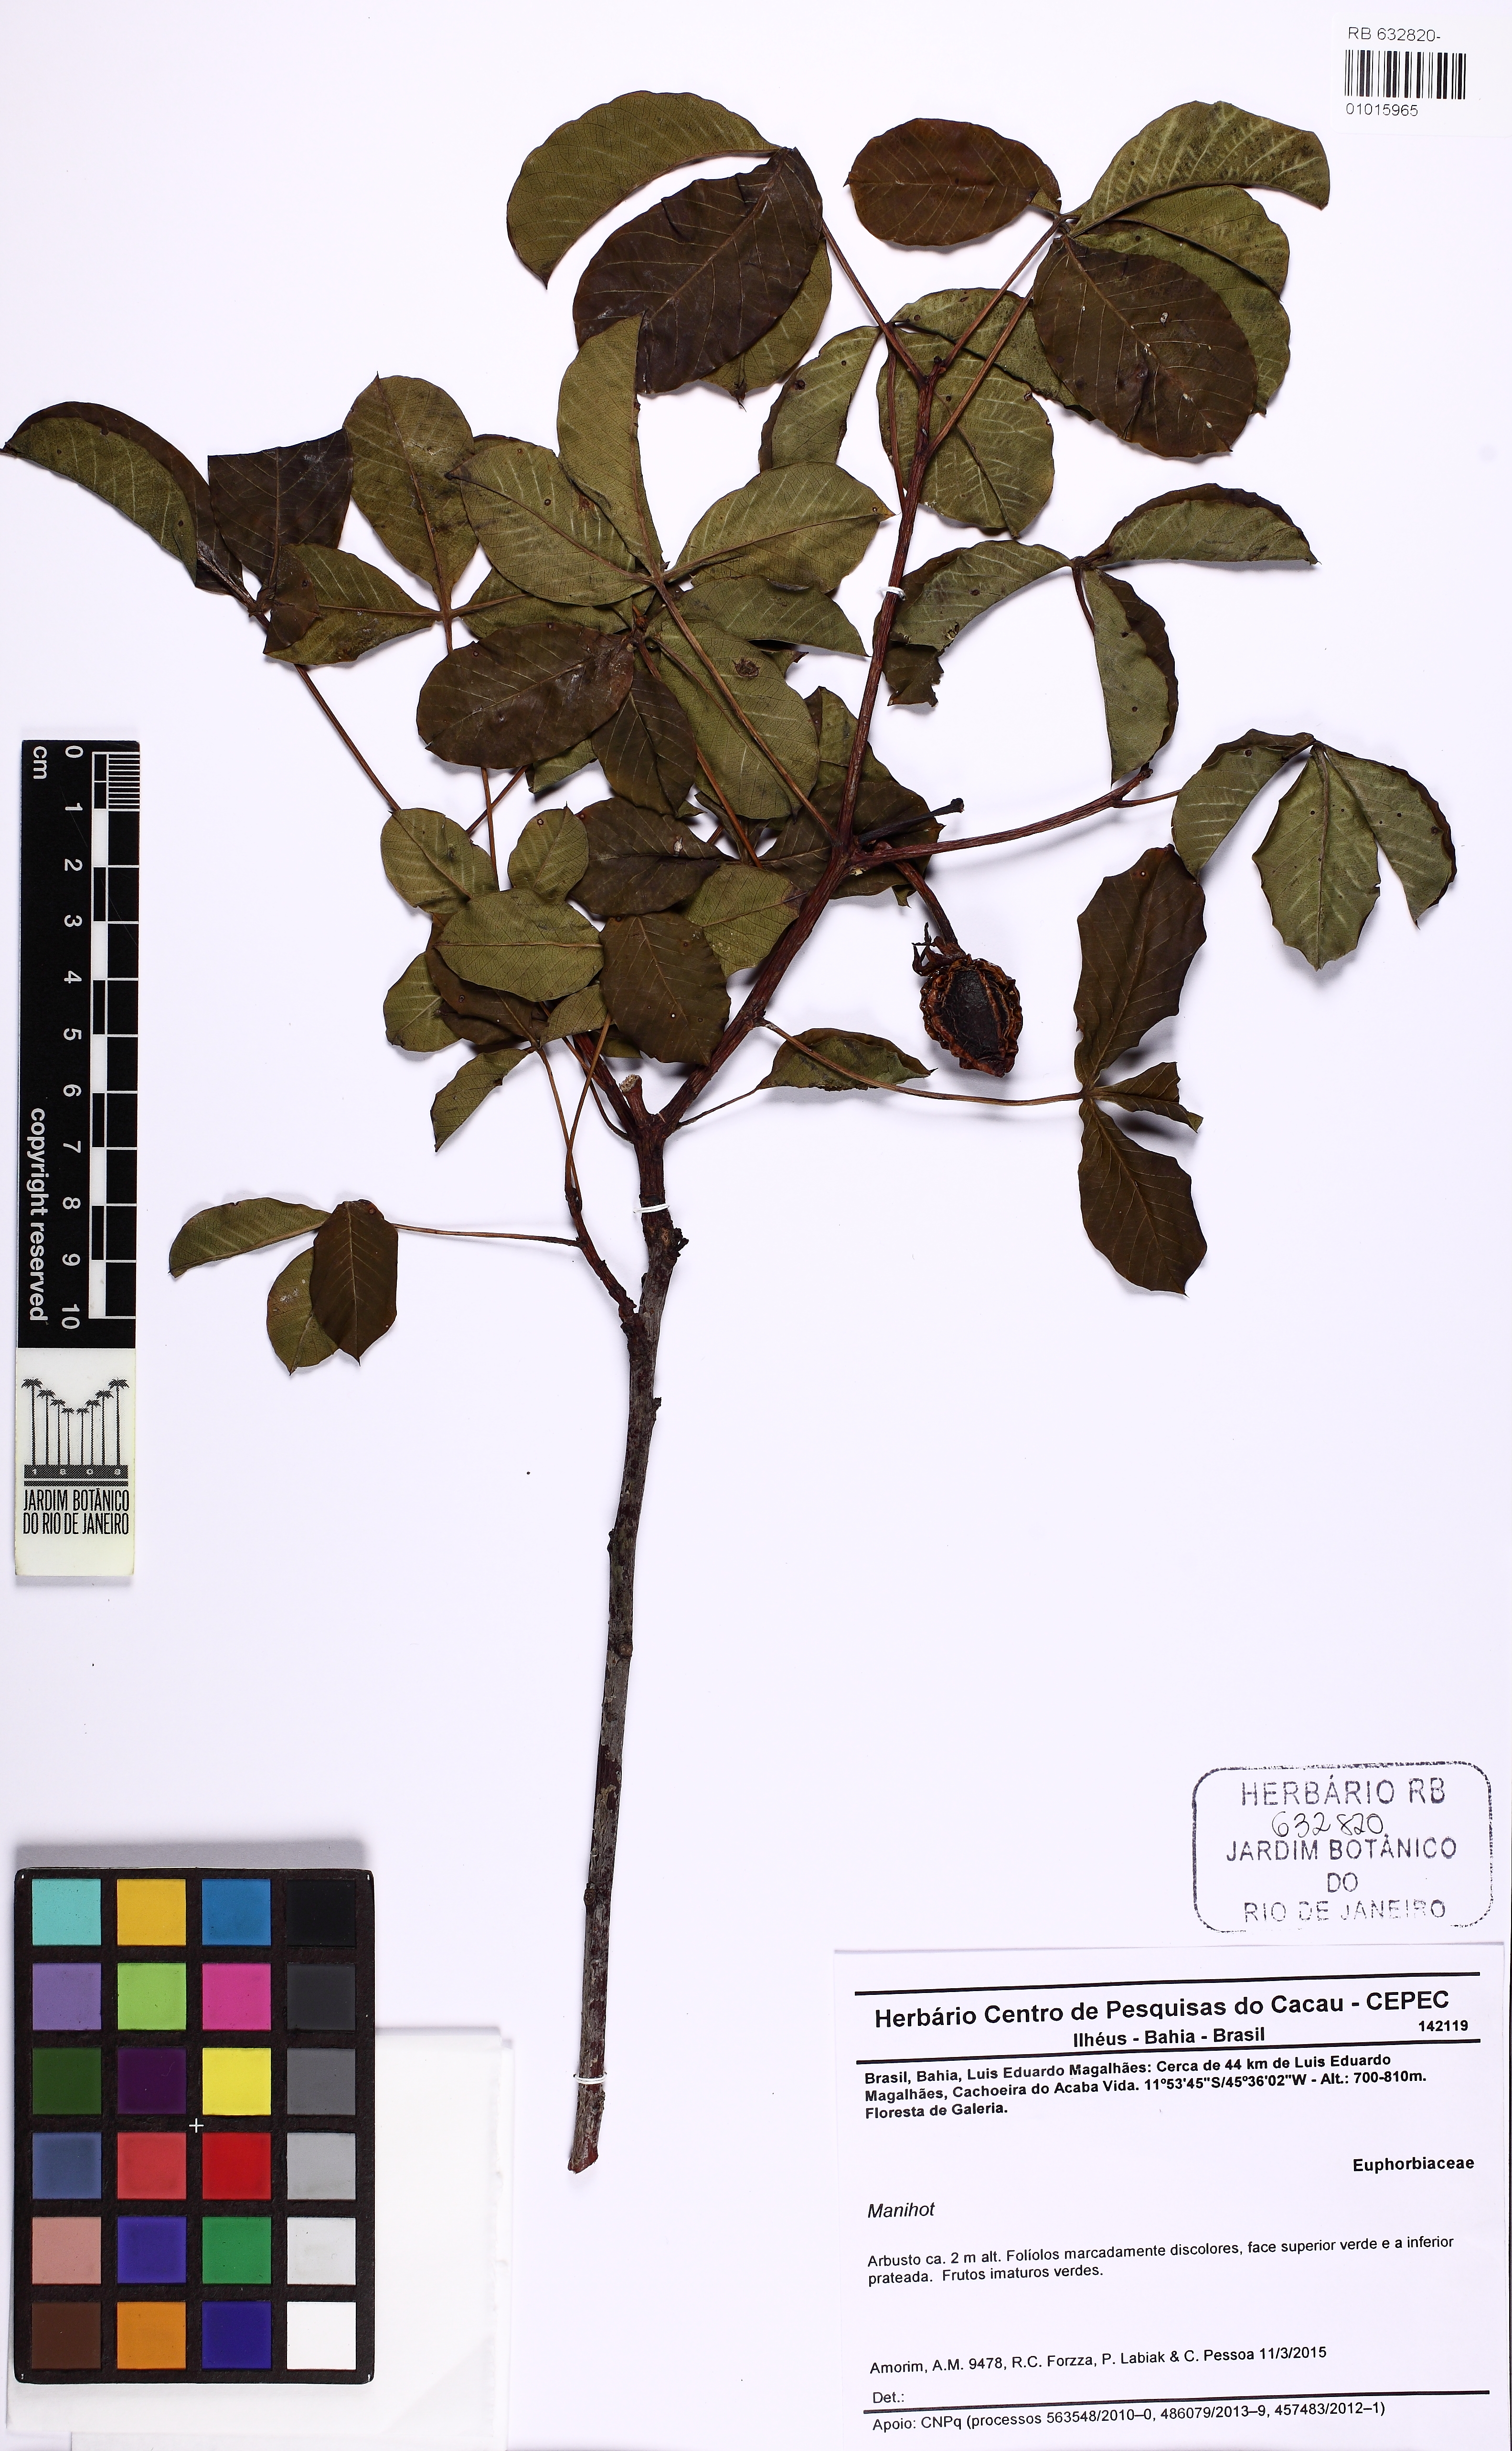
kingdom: Plantae
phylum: Tracheophyta
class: Magnoliopsida
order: Malpighiales
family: Euphorbiaceae
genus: Manihot
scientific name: Manihot
